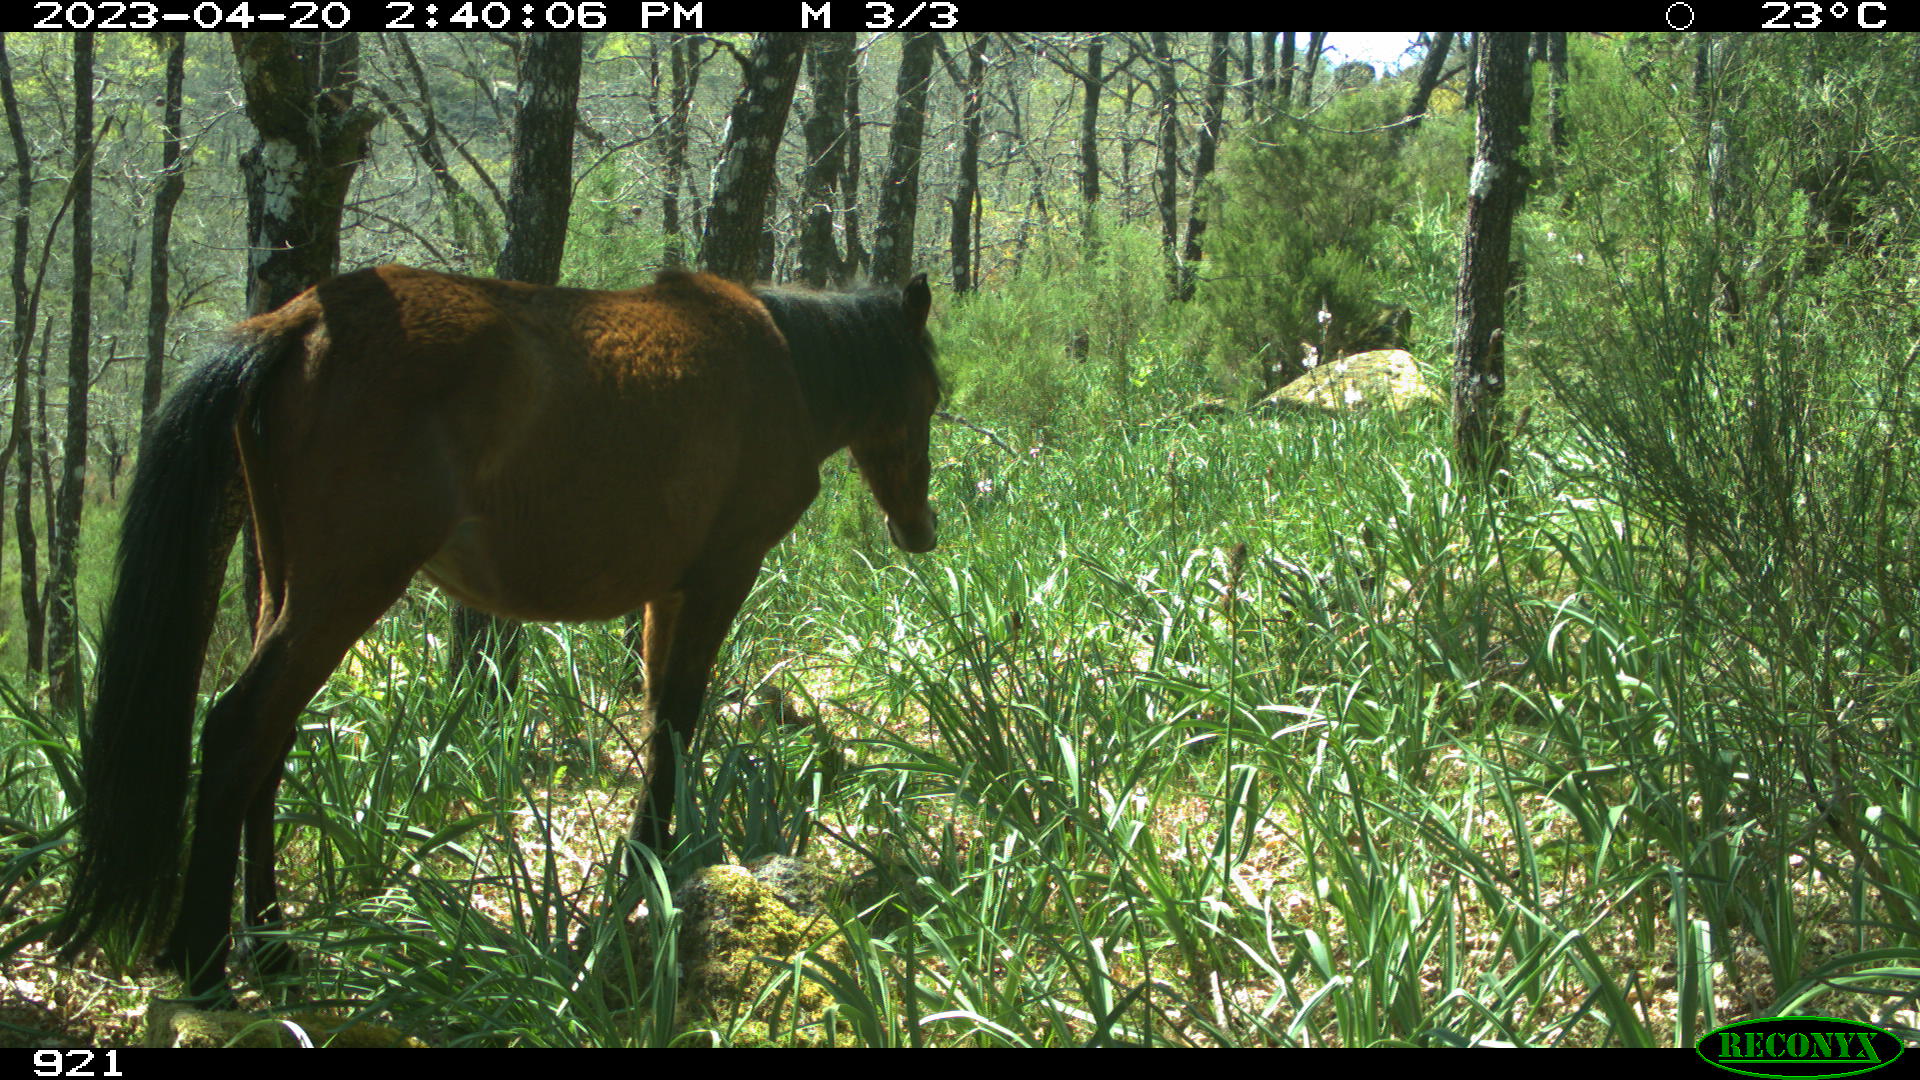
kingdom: Animalia
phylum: Chordata
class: Mammalia
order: Perissodactyla
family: Equidae
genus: Equus
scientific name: Equus caballus
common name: Horse
